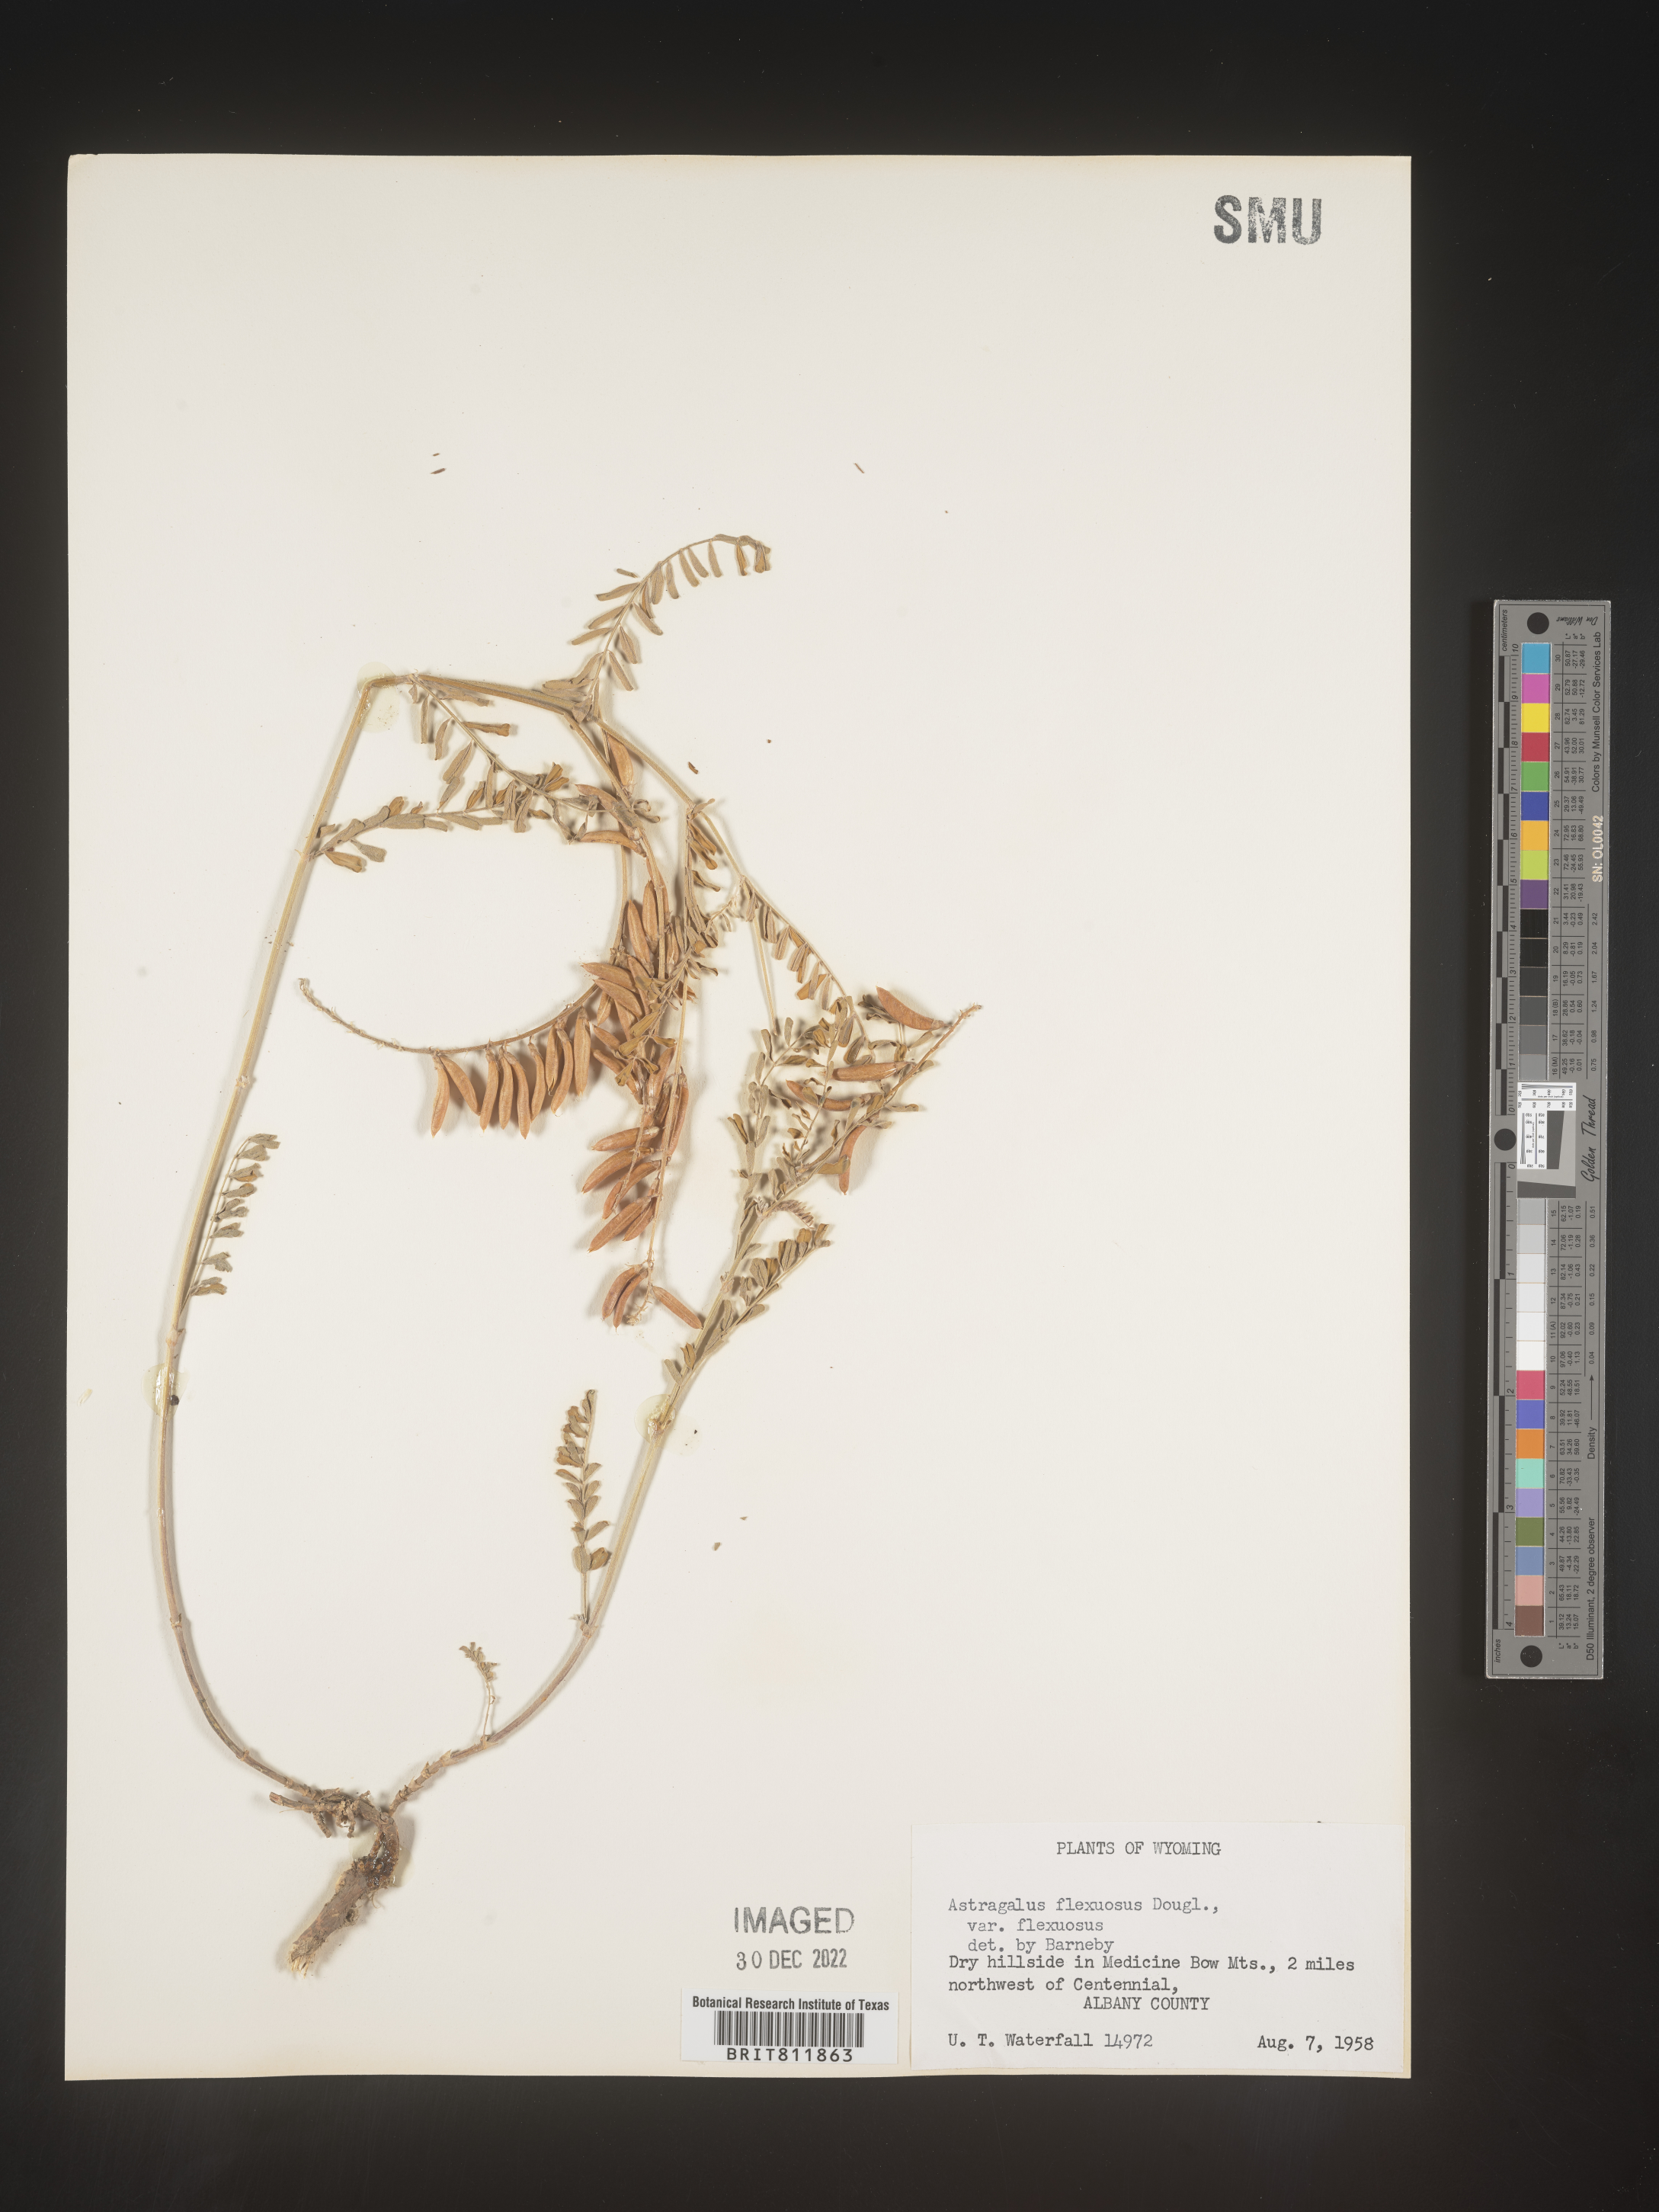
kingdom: Plantae
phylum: Tracheophyta
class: Magnoliopsida
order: Fabales
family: Fabaceae
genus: Astragalus
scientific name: Astragalus flexuosus
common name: Pliant milk-vetch
